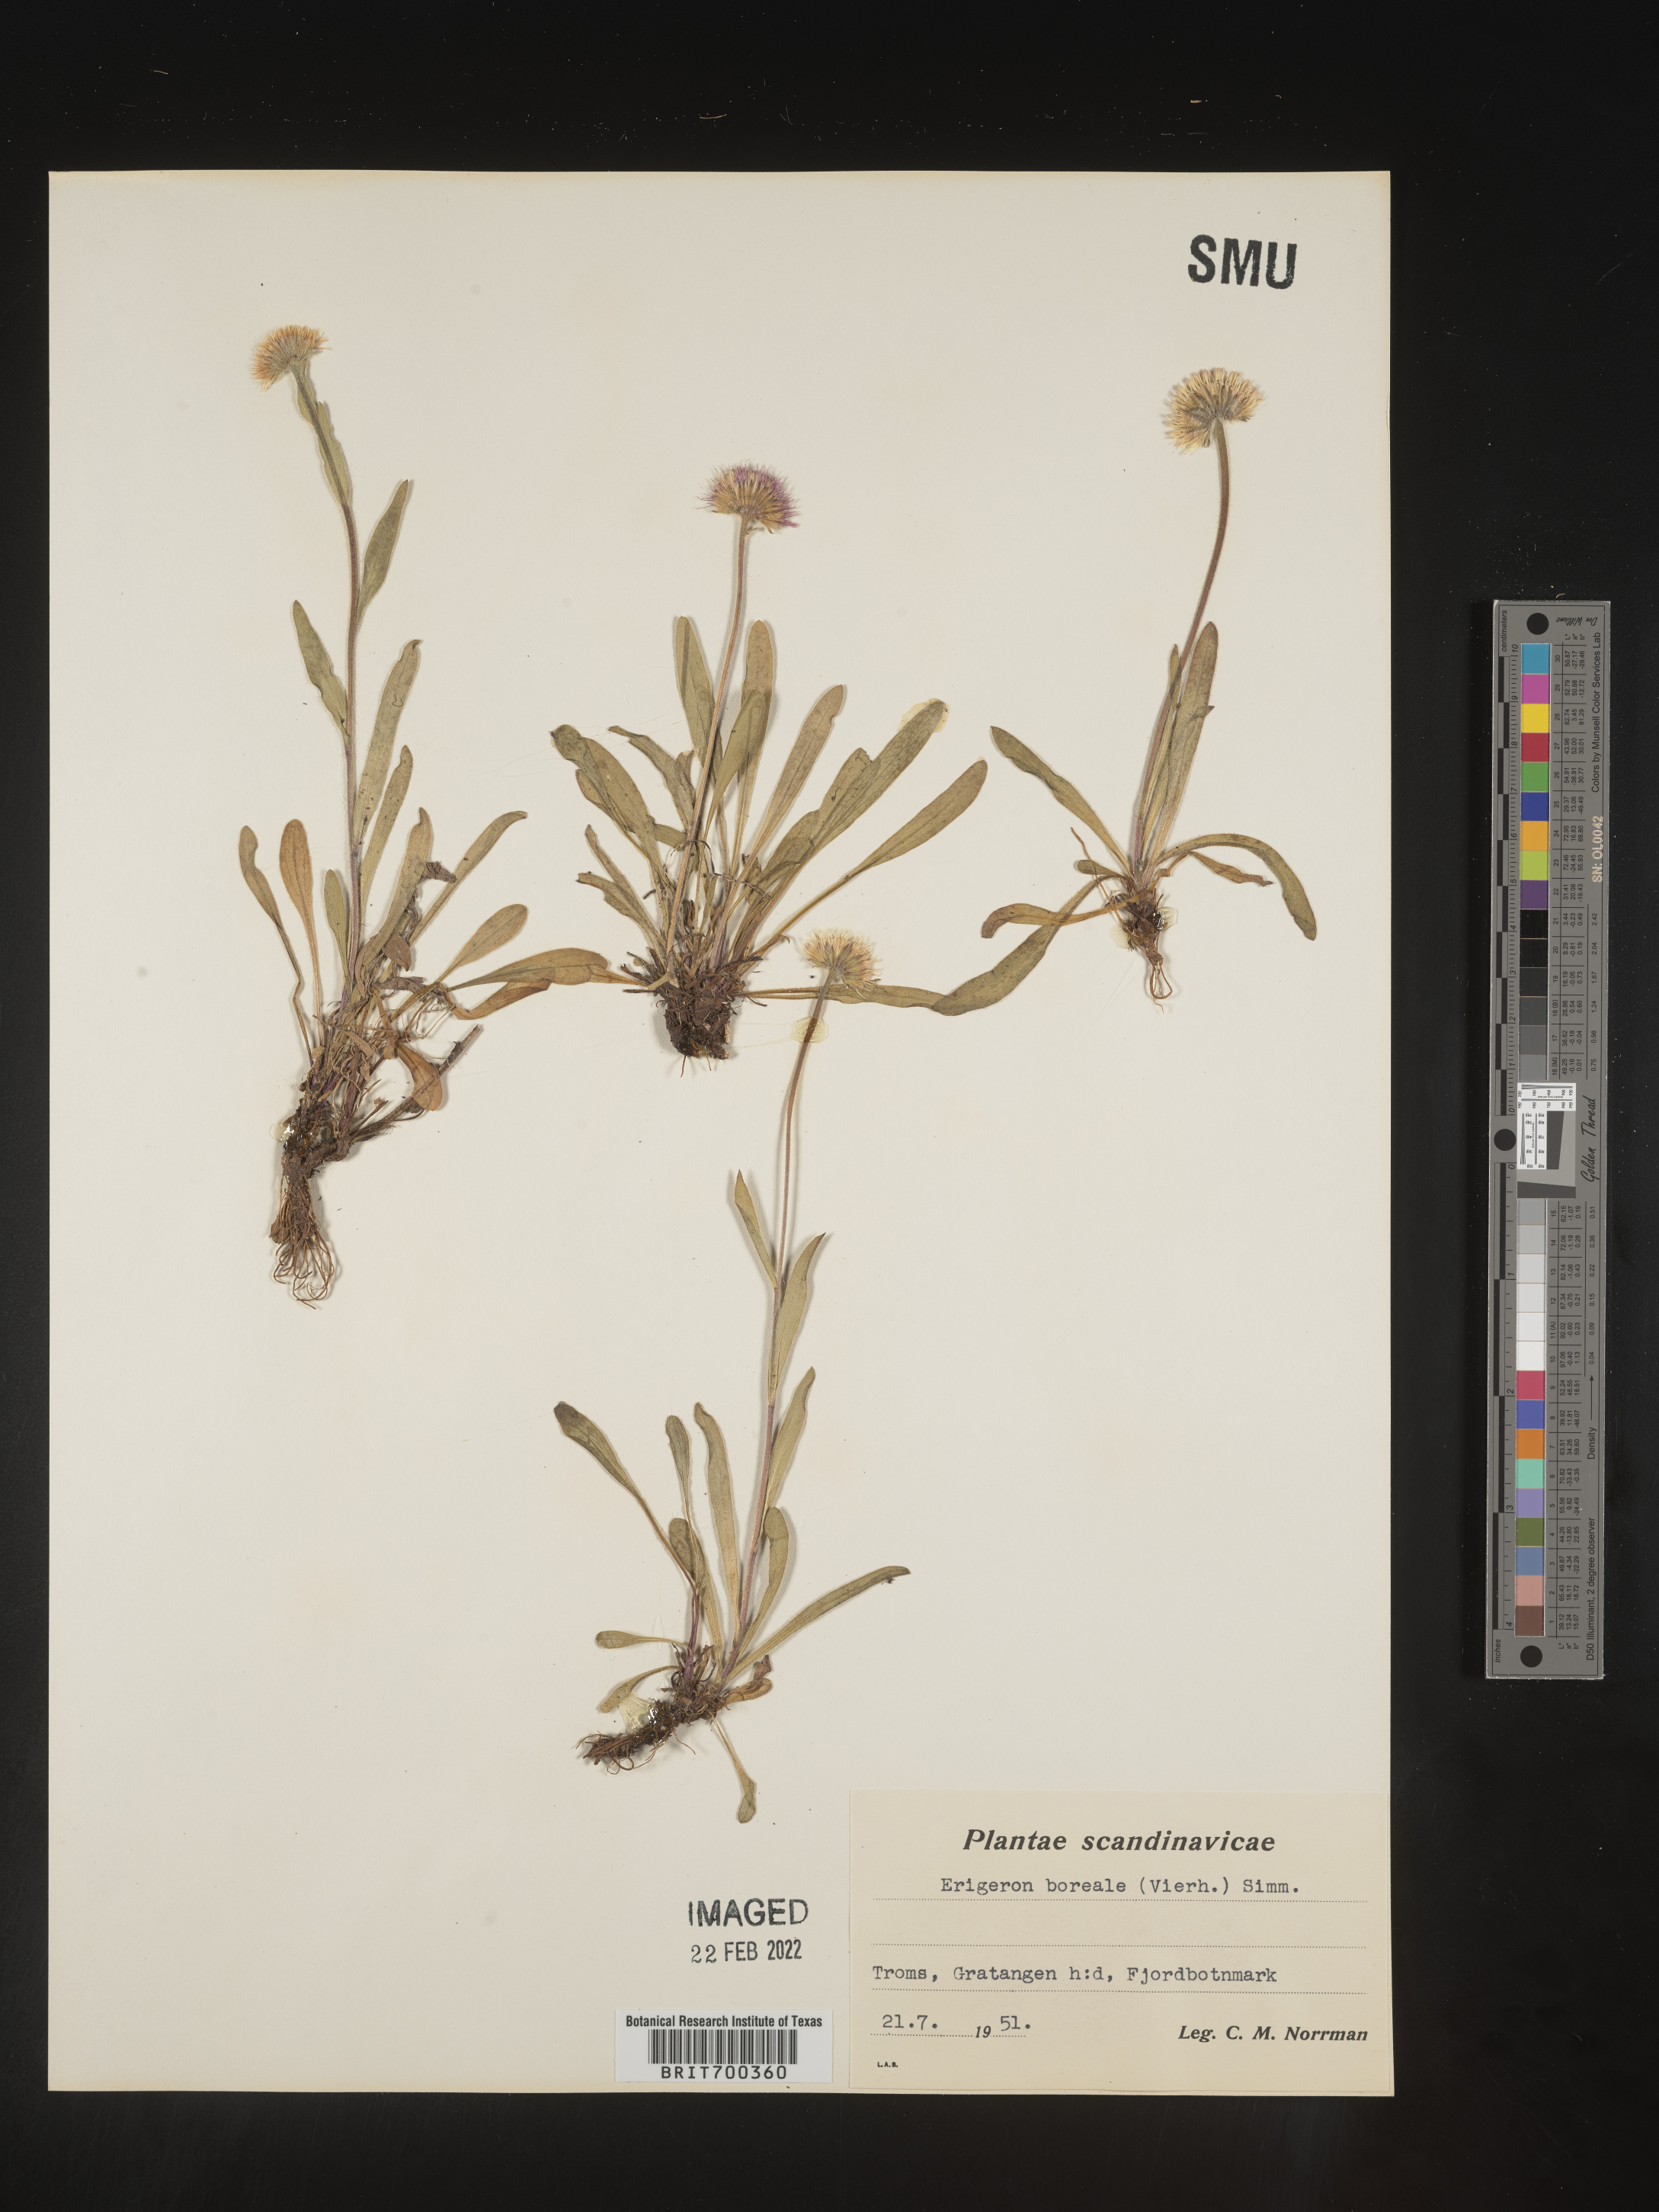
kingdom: Plantae
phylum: Tracheophyta
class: Magnoliopsida
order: Asterales
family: Asteraceae
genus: Erigeron
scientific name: Erigeron
